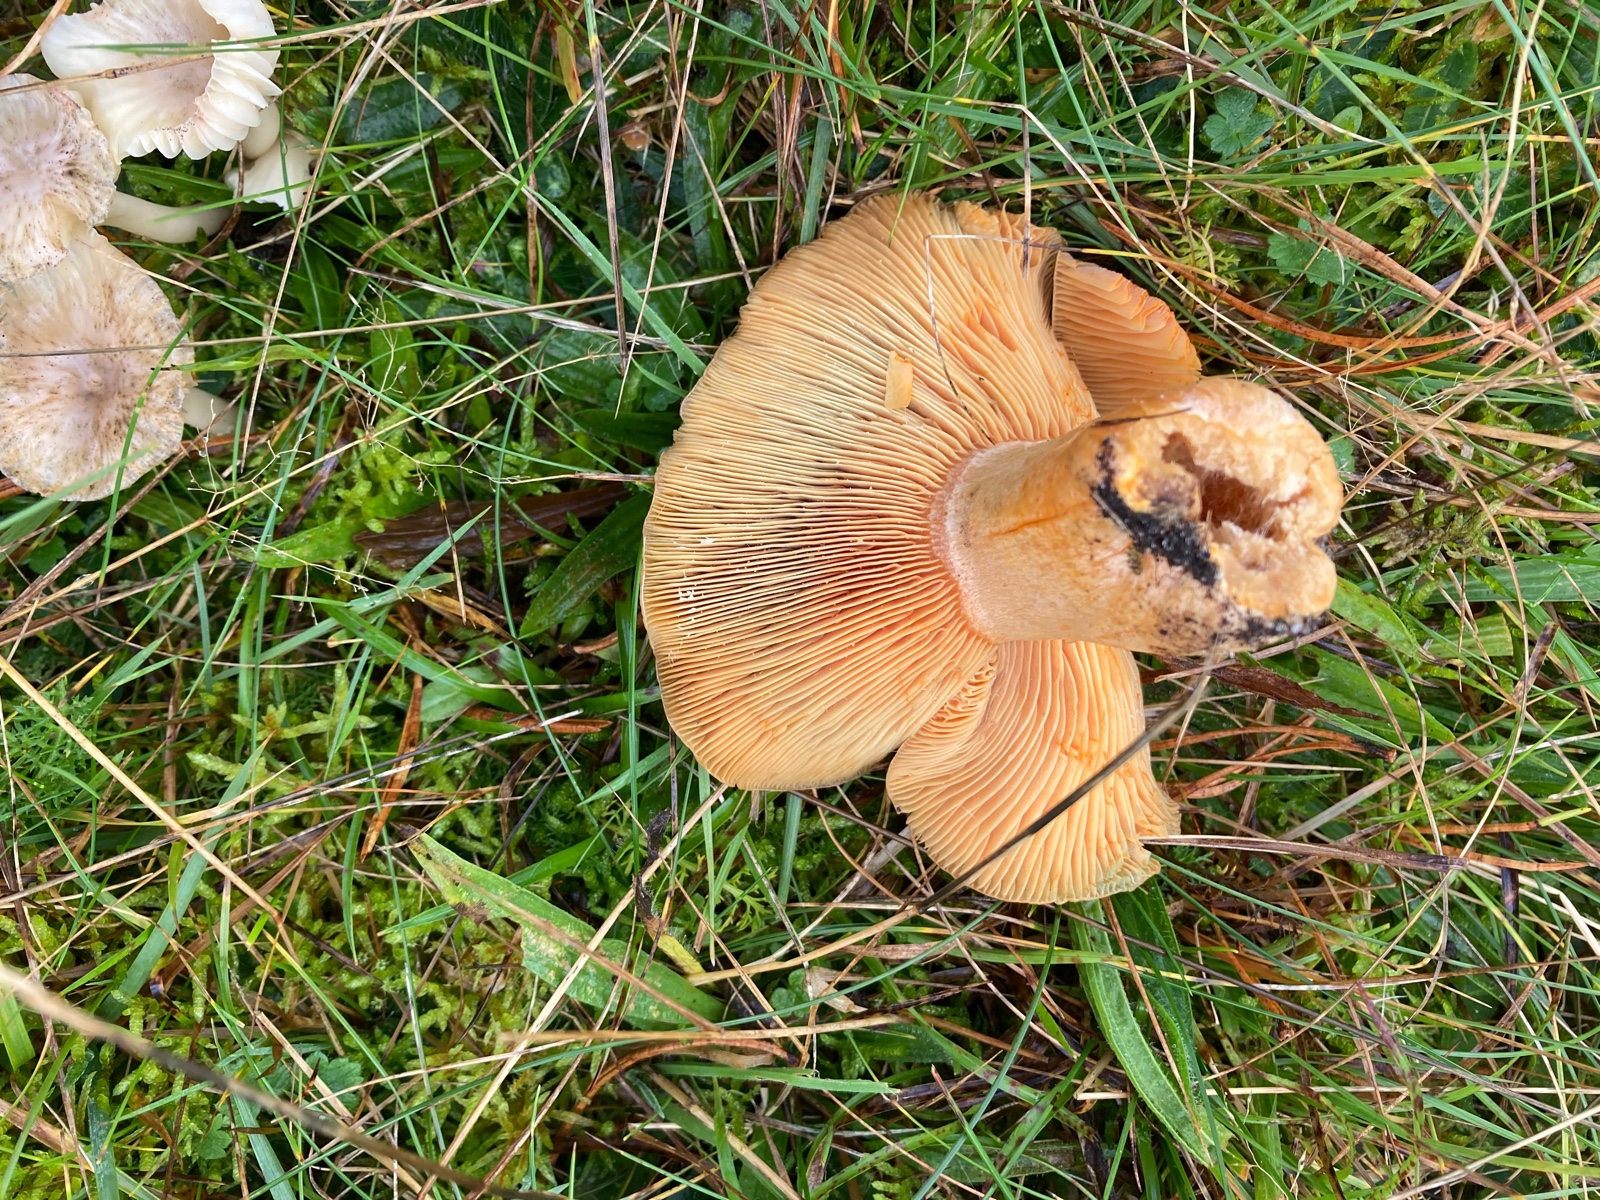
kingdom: Fungi
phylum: Basidiomycota
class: Agaricomycetes
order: Russulales
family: Russulaceae
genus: Lactarius
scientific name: Lactarius deliciosus
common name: velsmagende mælkehat
